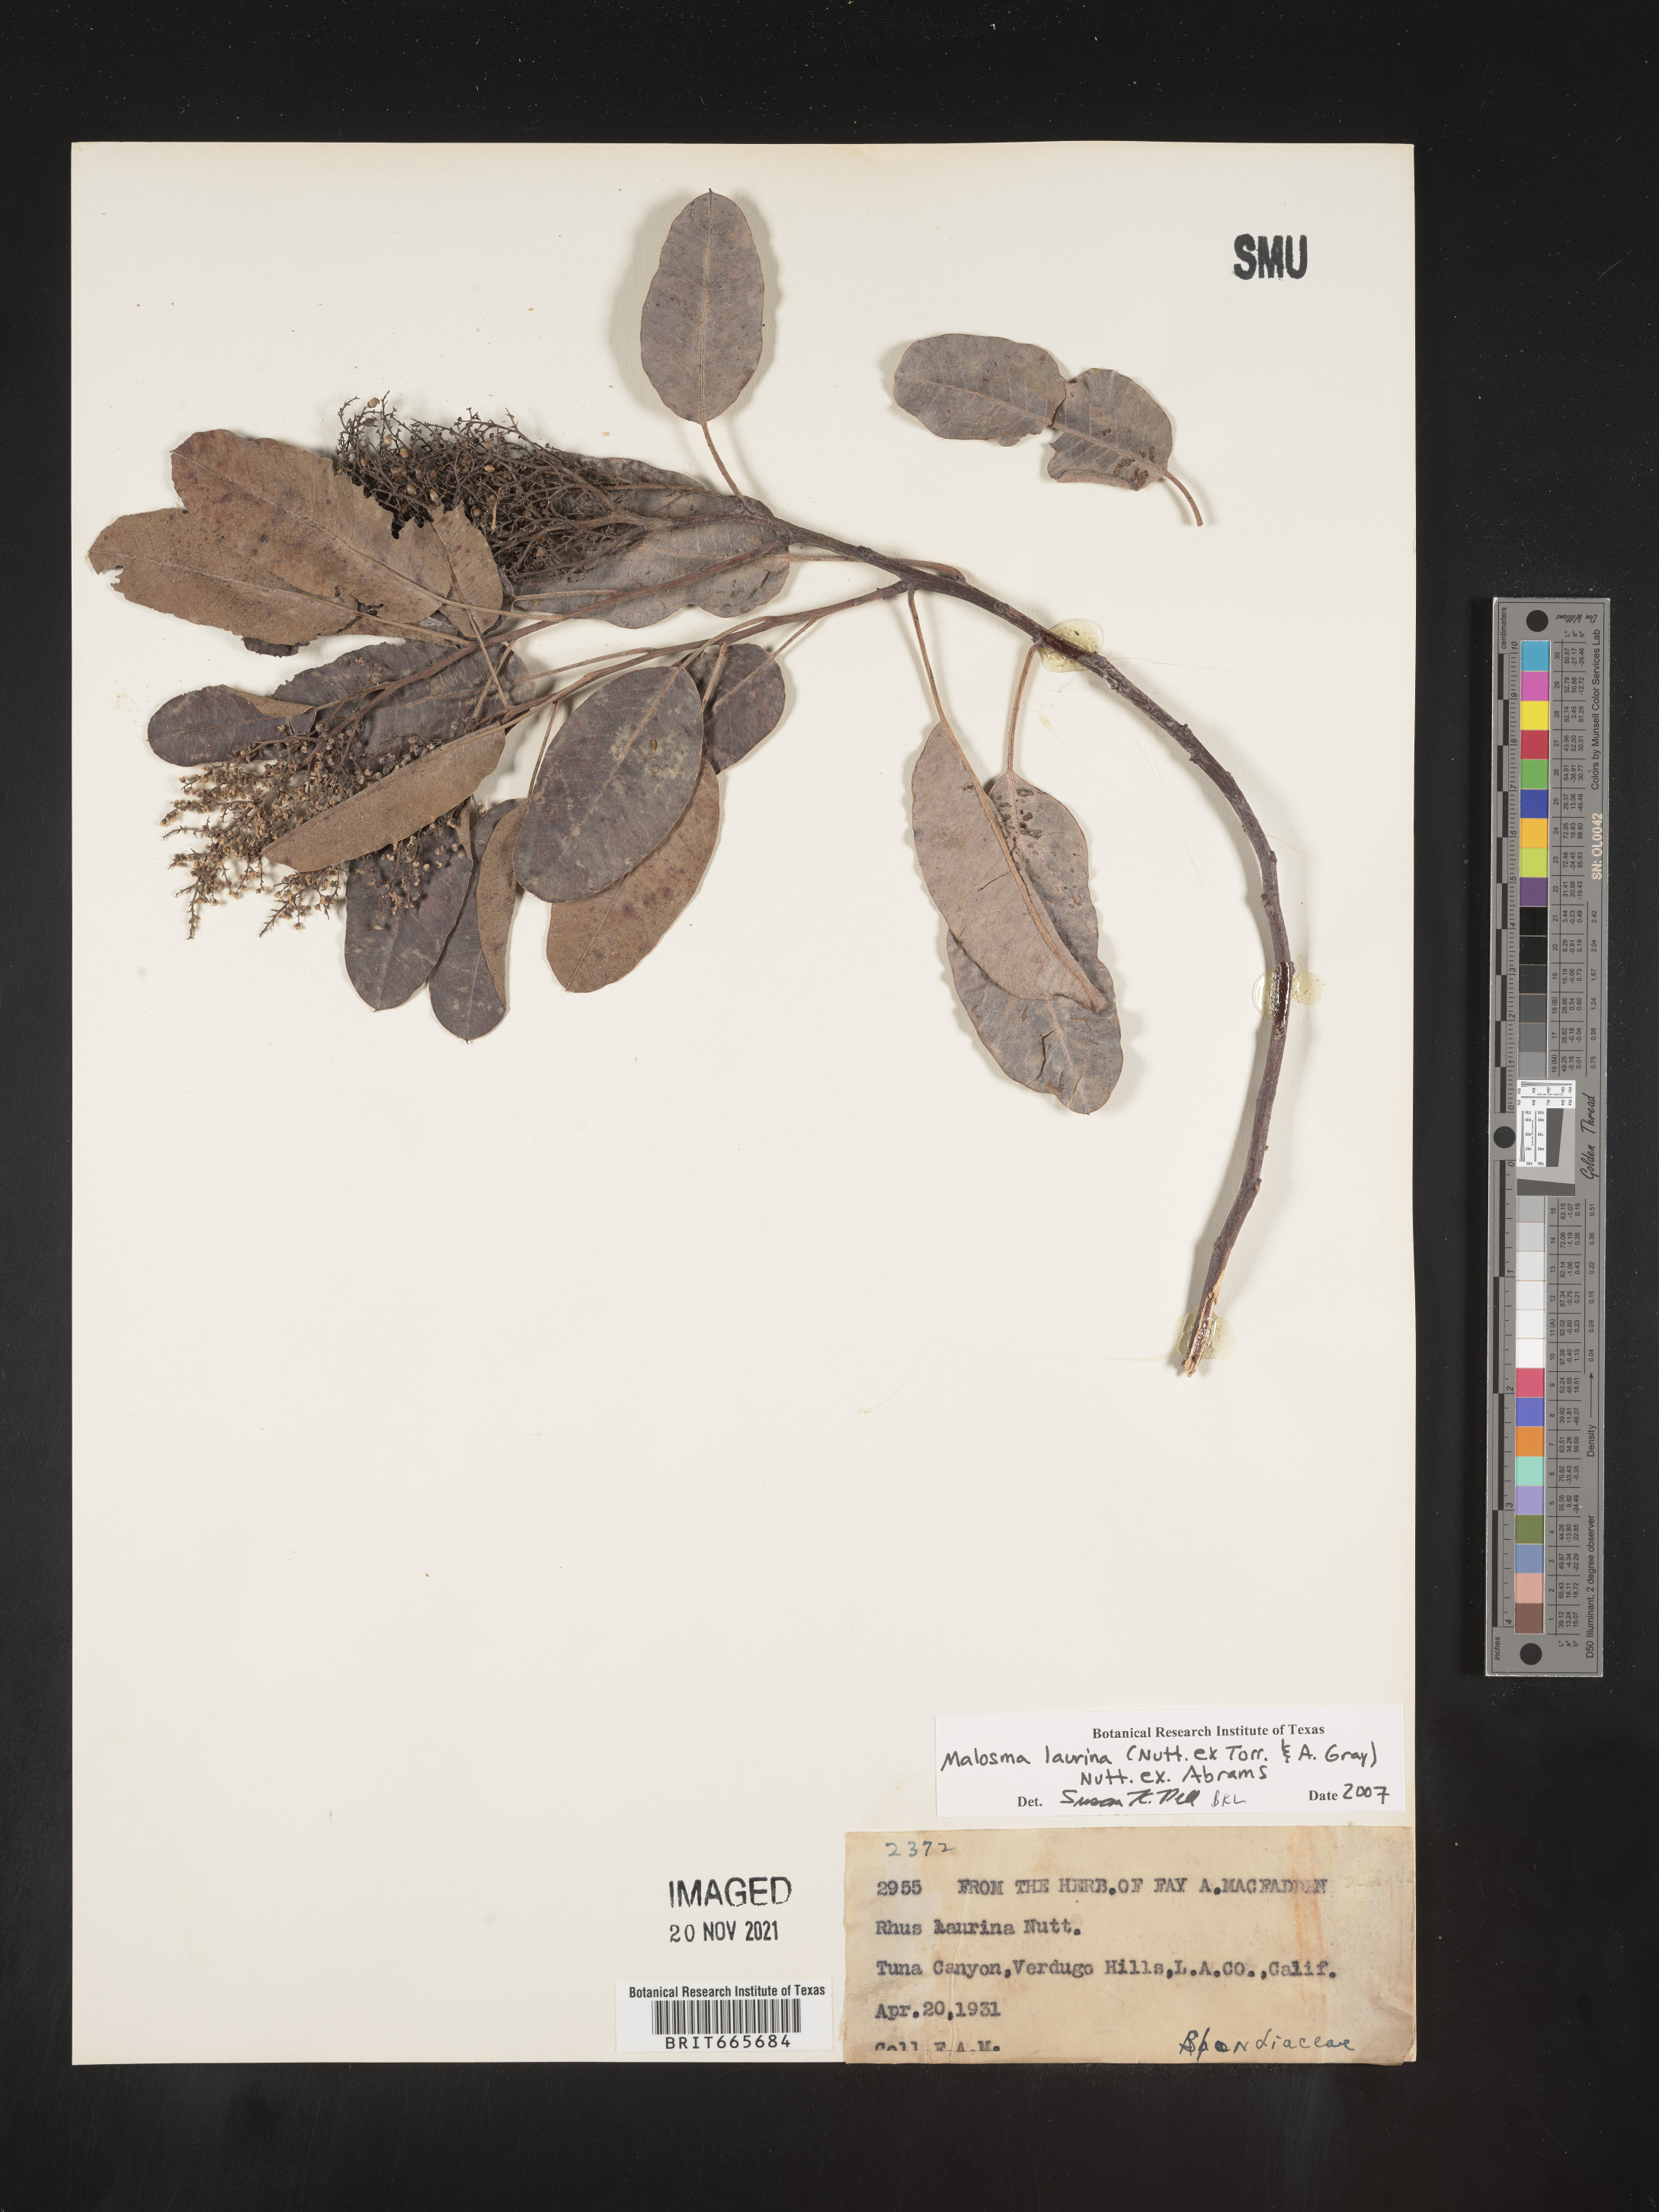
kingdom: Plantae
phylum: Tracheophyta
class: Magnoliopsida
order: Sapindales
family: Anacardiaceae
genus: Malosma
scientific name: Malosma
